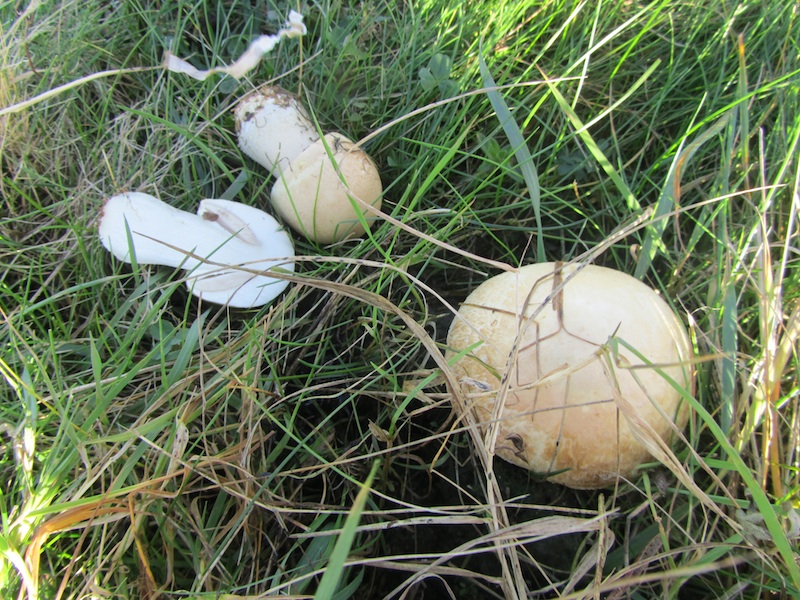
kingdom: Fungi
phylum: Basidiomycota
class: Agaricomycetes
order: Agaricales
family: Agaricaceae
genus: Agaricus
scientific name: Agaricus arvensis
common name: ager-champignon
